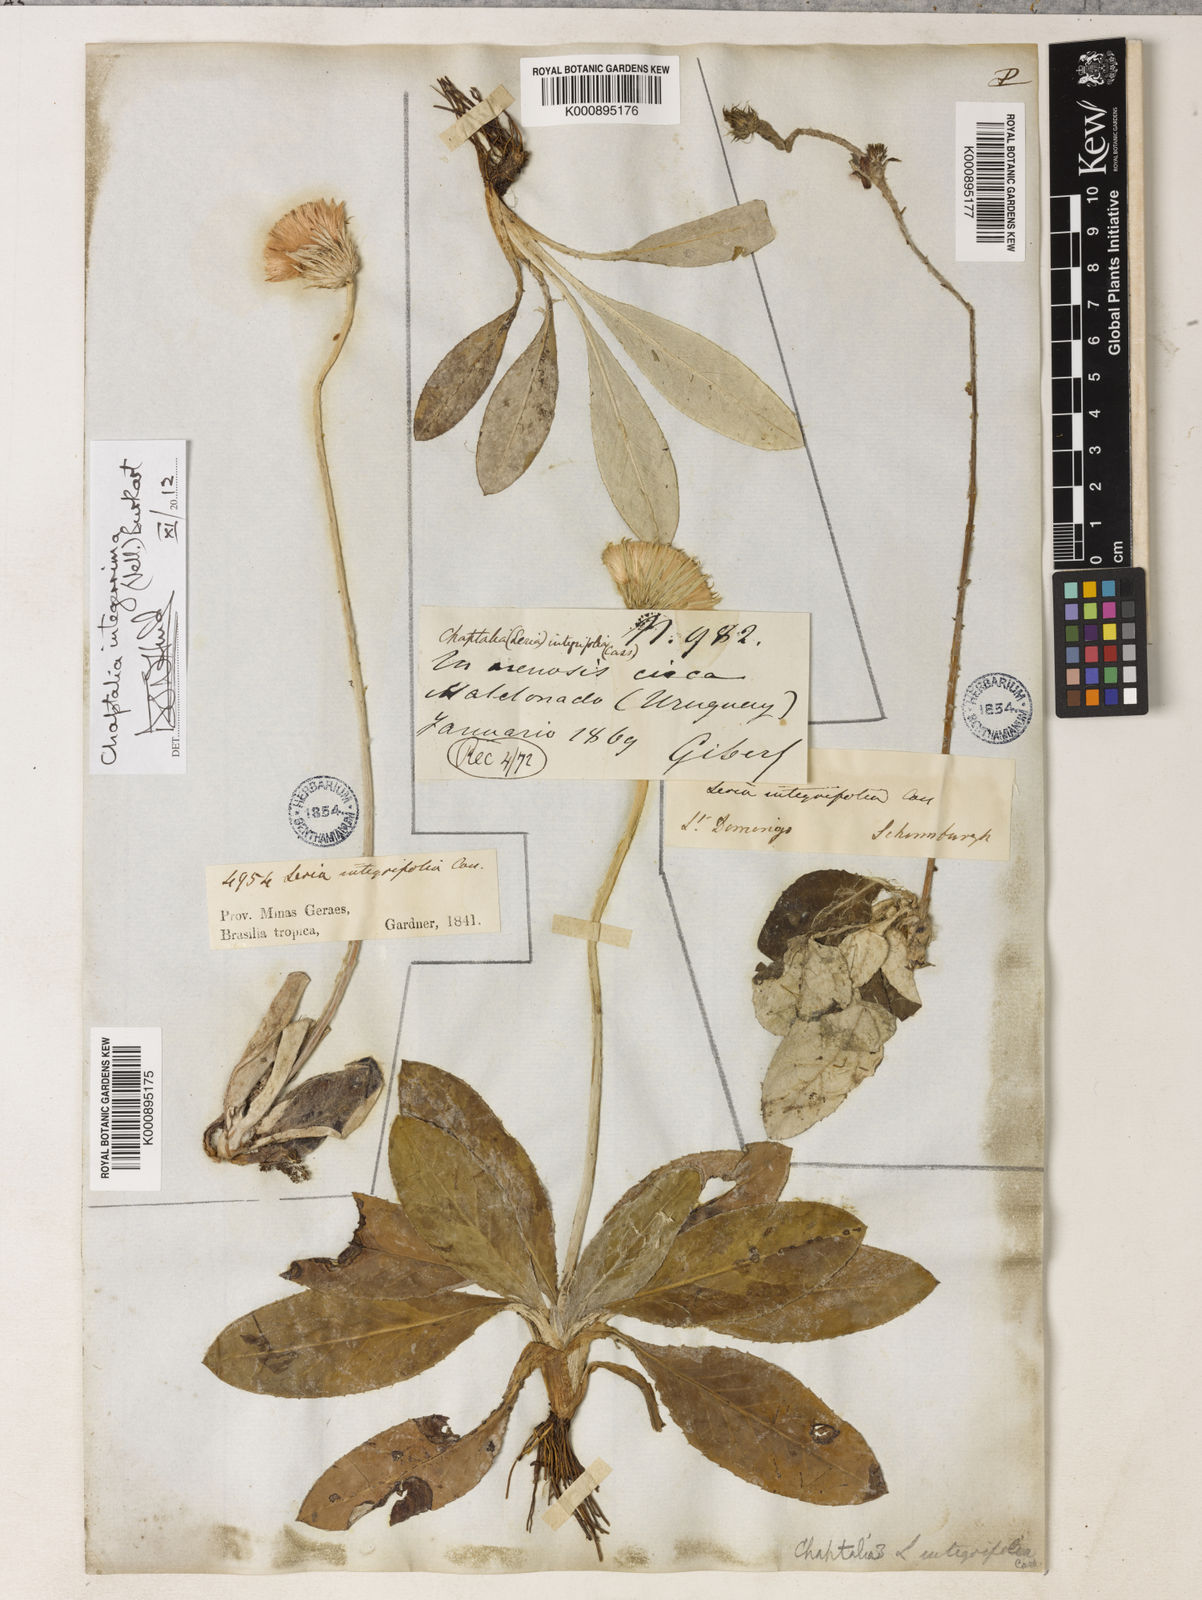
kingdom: Plantae
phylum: Tracheophyta
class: Magnoliopsida
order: Asterales
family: Asteraceae
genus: Chaptalia
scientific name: Chaptalia integerrima
